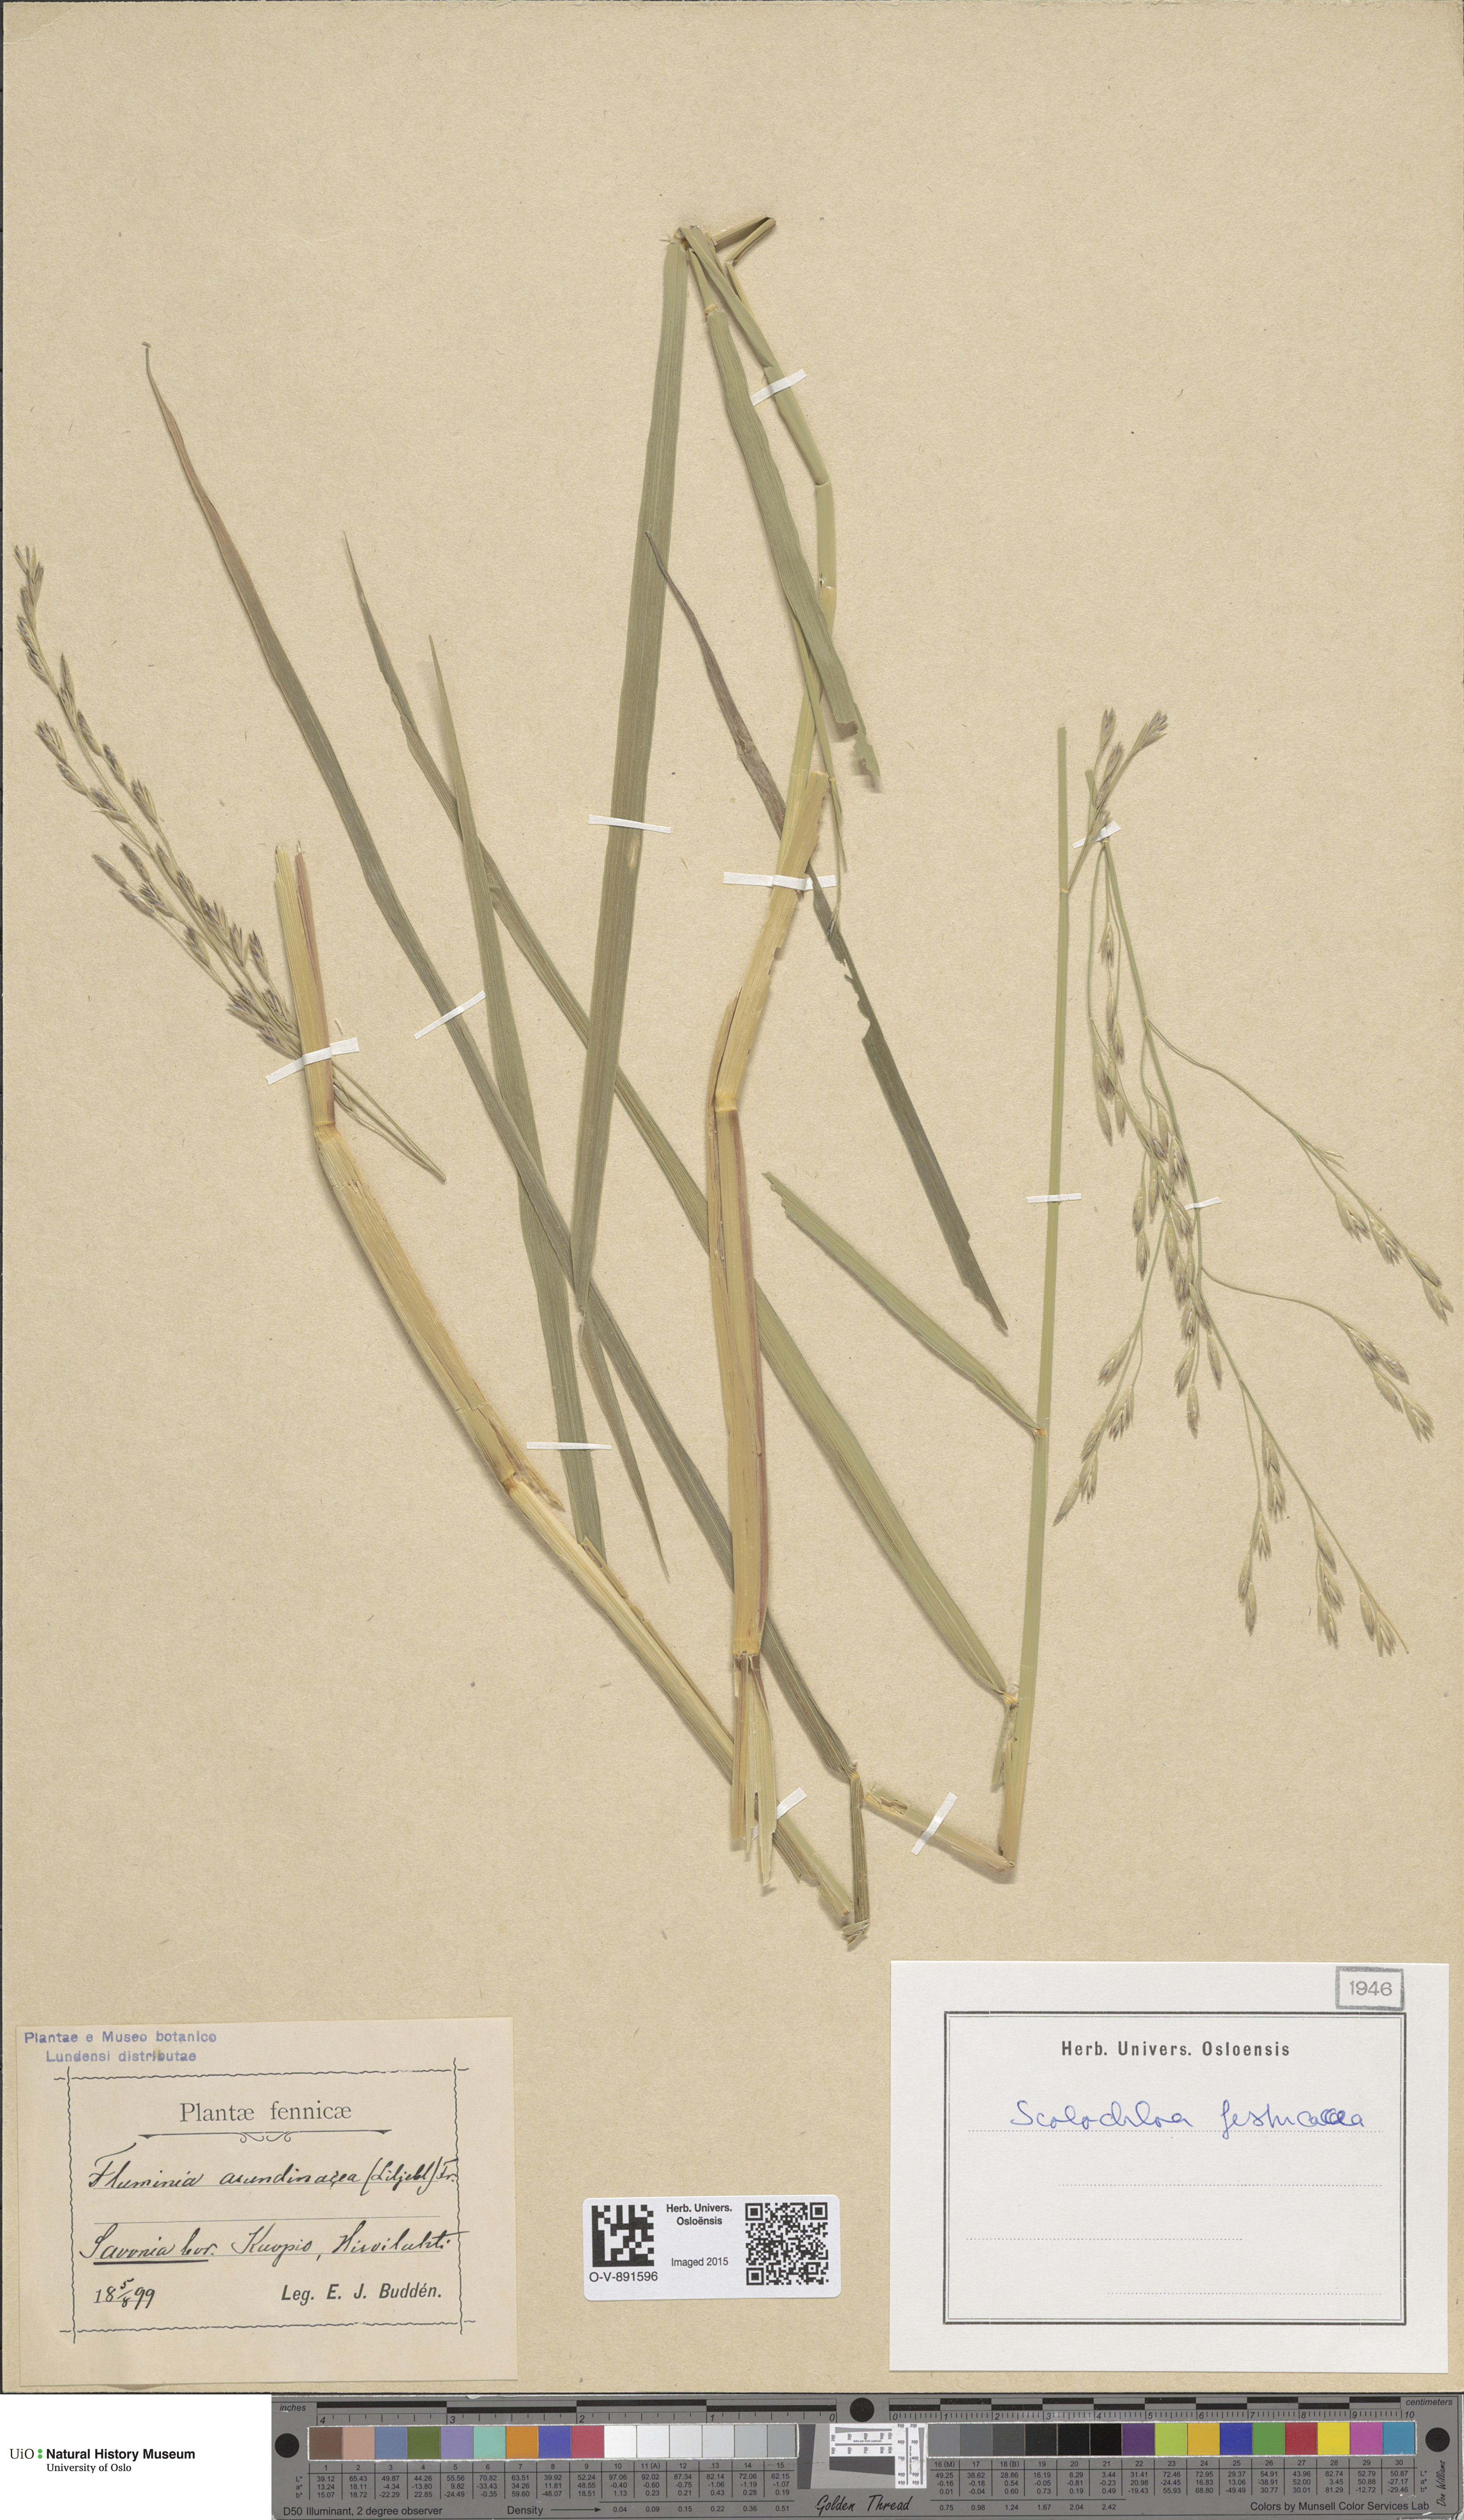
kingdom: Plantae
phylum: Tracheophyta
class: Liliopsida
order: Poales
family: Poaceae
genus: Scolochloa
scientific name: Scolochloa festucacea
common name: Common rivergrass
